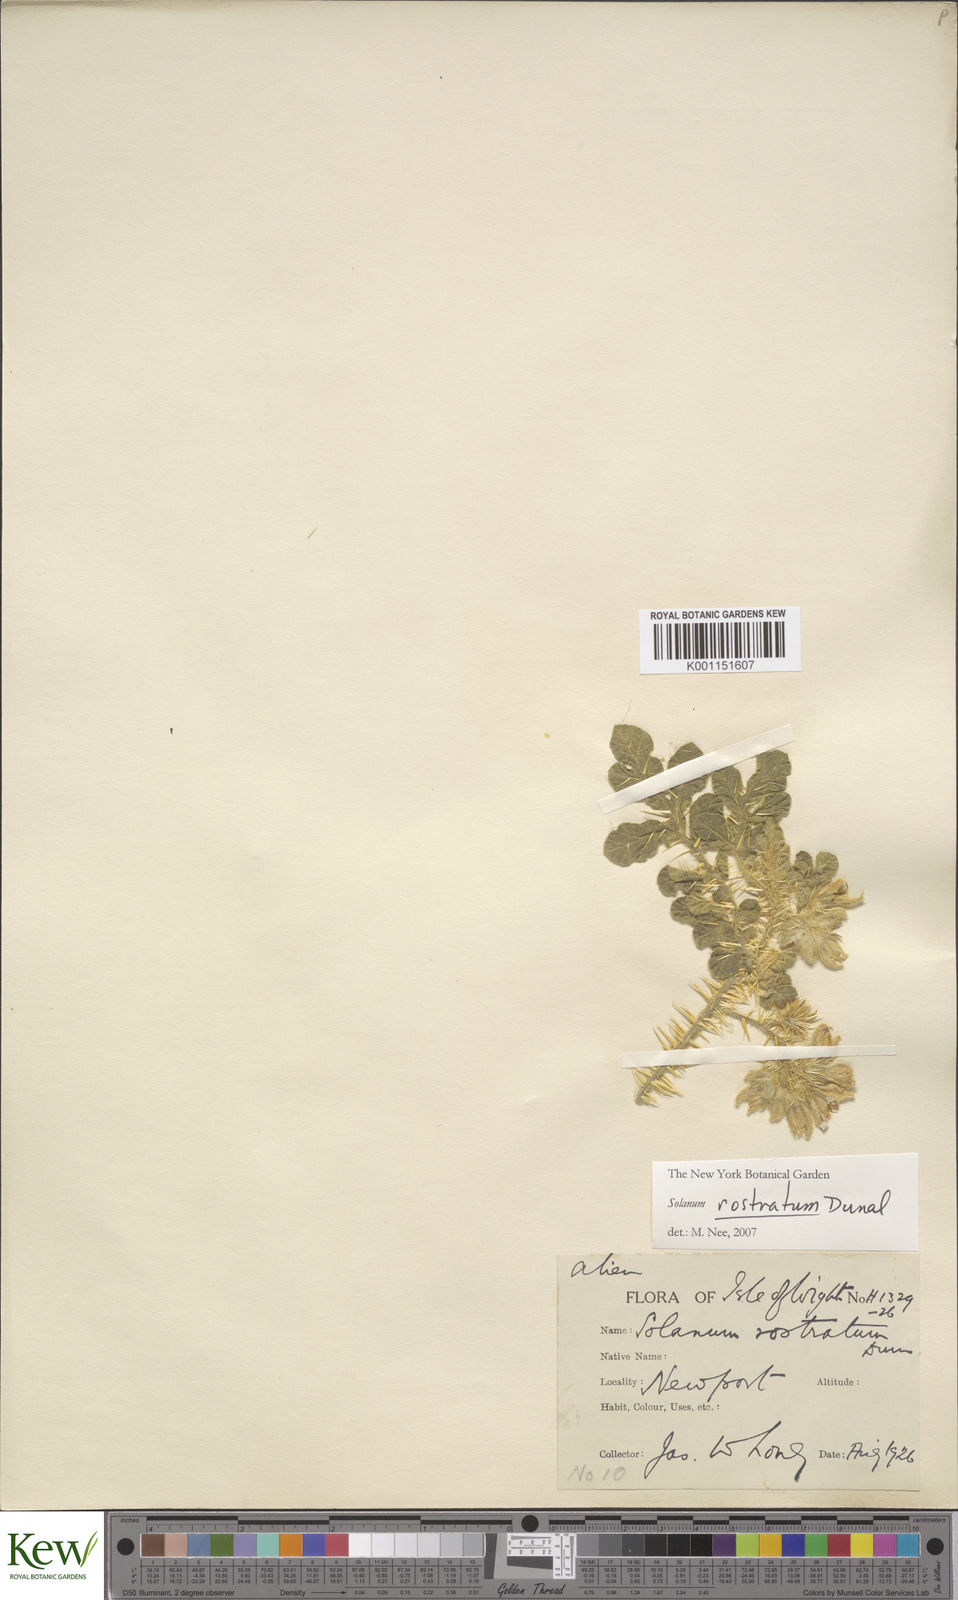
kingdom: Plantae
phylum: Tracheophyta
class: Magnoliopsida
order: Solanales
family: Solanaceae
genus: Solanum
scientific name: Solanum angustifolium
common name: Buffalobur nightshade
